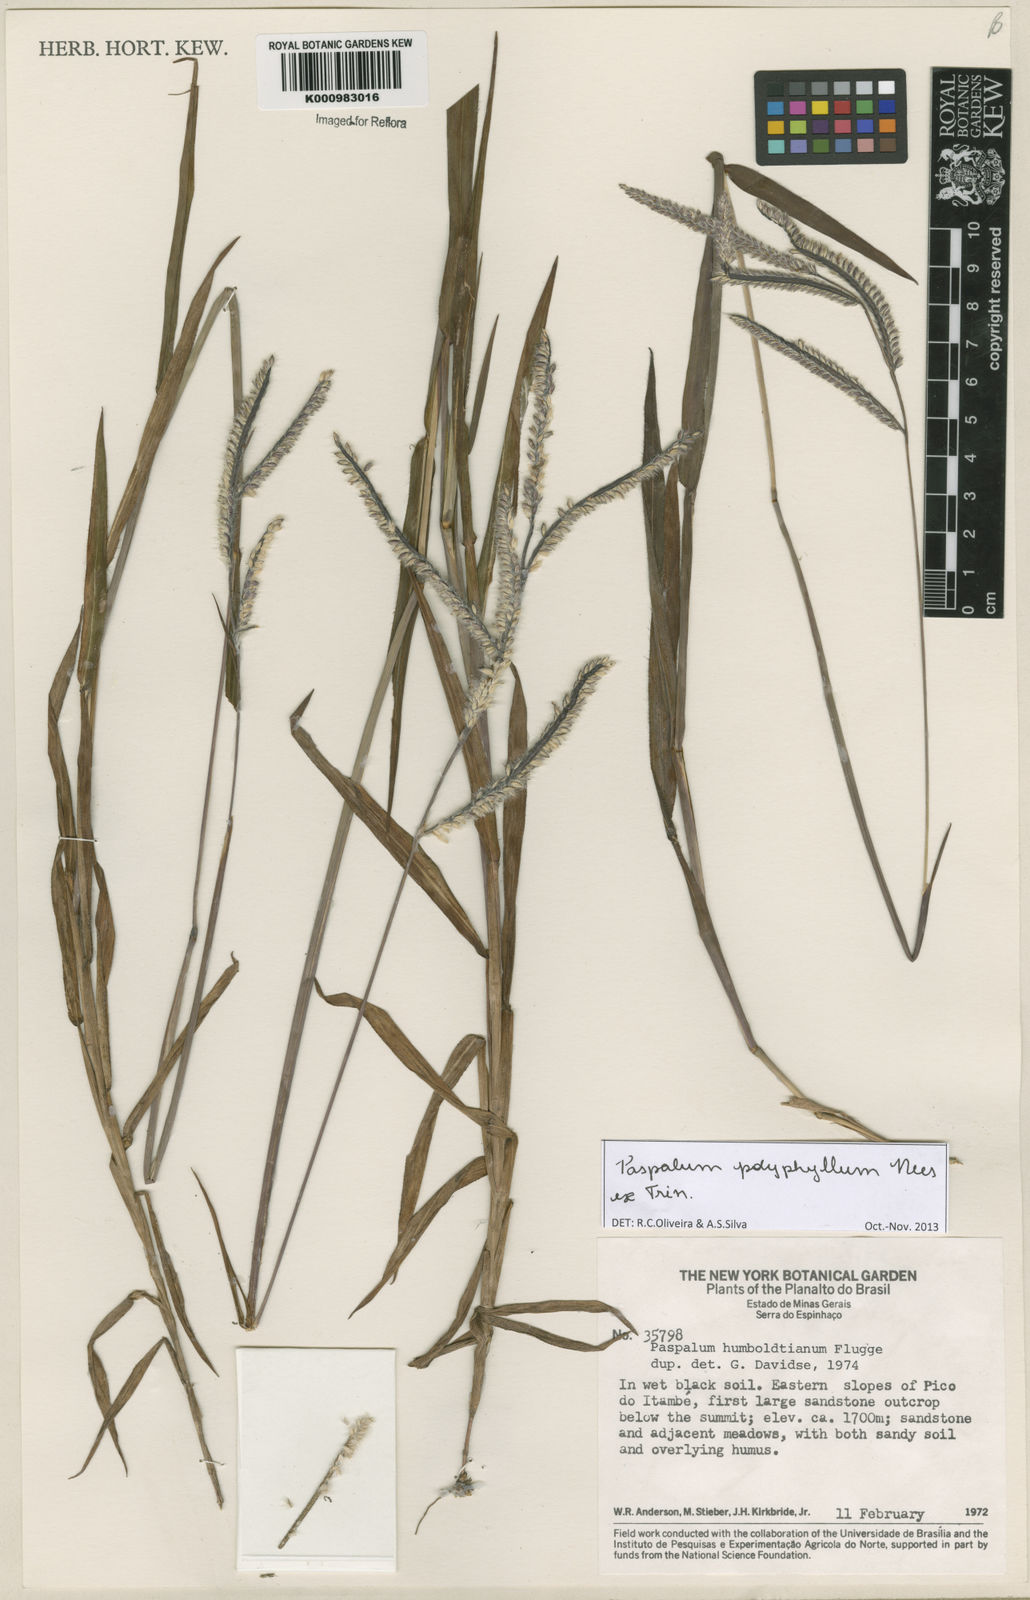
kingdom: Plantae
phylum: Tracheophyta
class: Liliopsida
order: Poales
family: Poaceae
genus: Paspalum
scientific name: Paspalum
